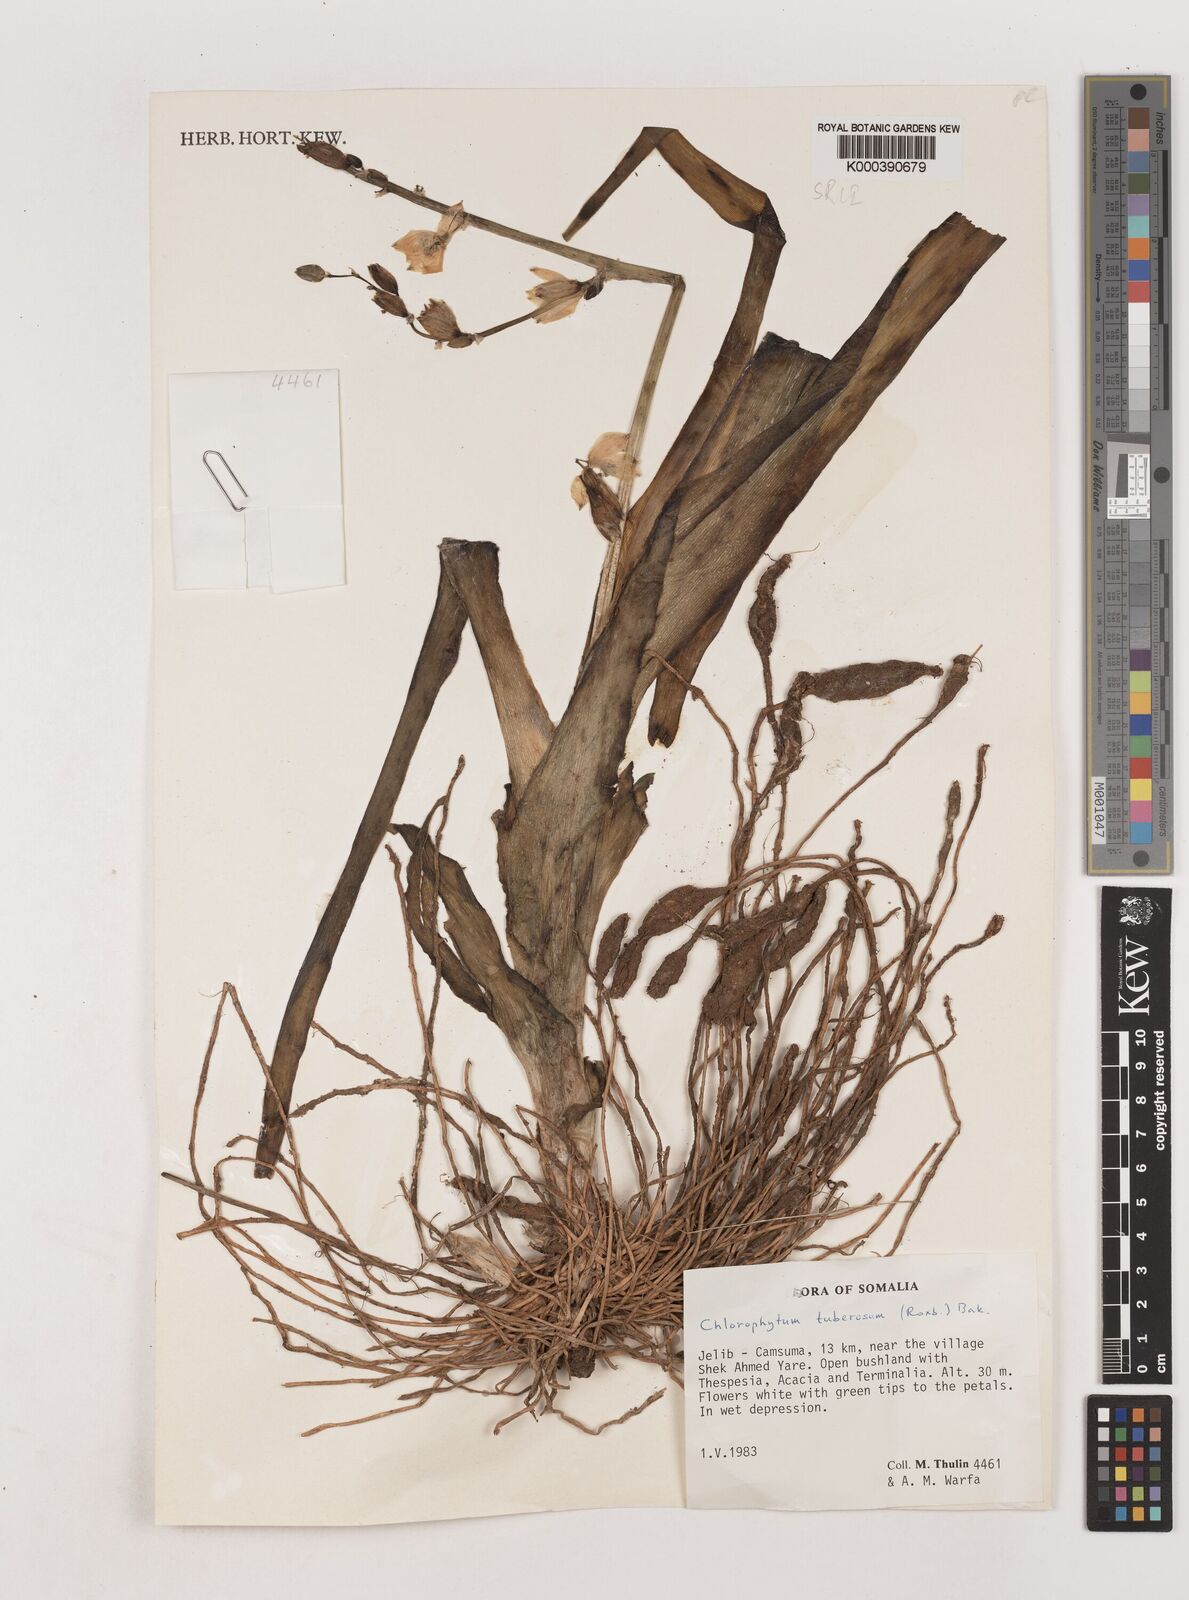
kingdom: Plantae
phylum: Tracheophyta
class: Liliopsida
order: Asparagales
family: Asparagaceae
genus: Chlorophytum
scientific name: Chlorophytum tuberosum
